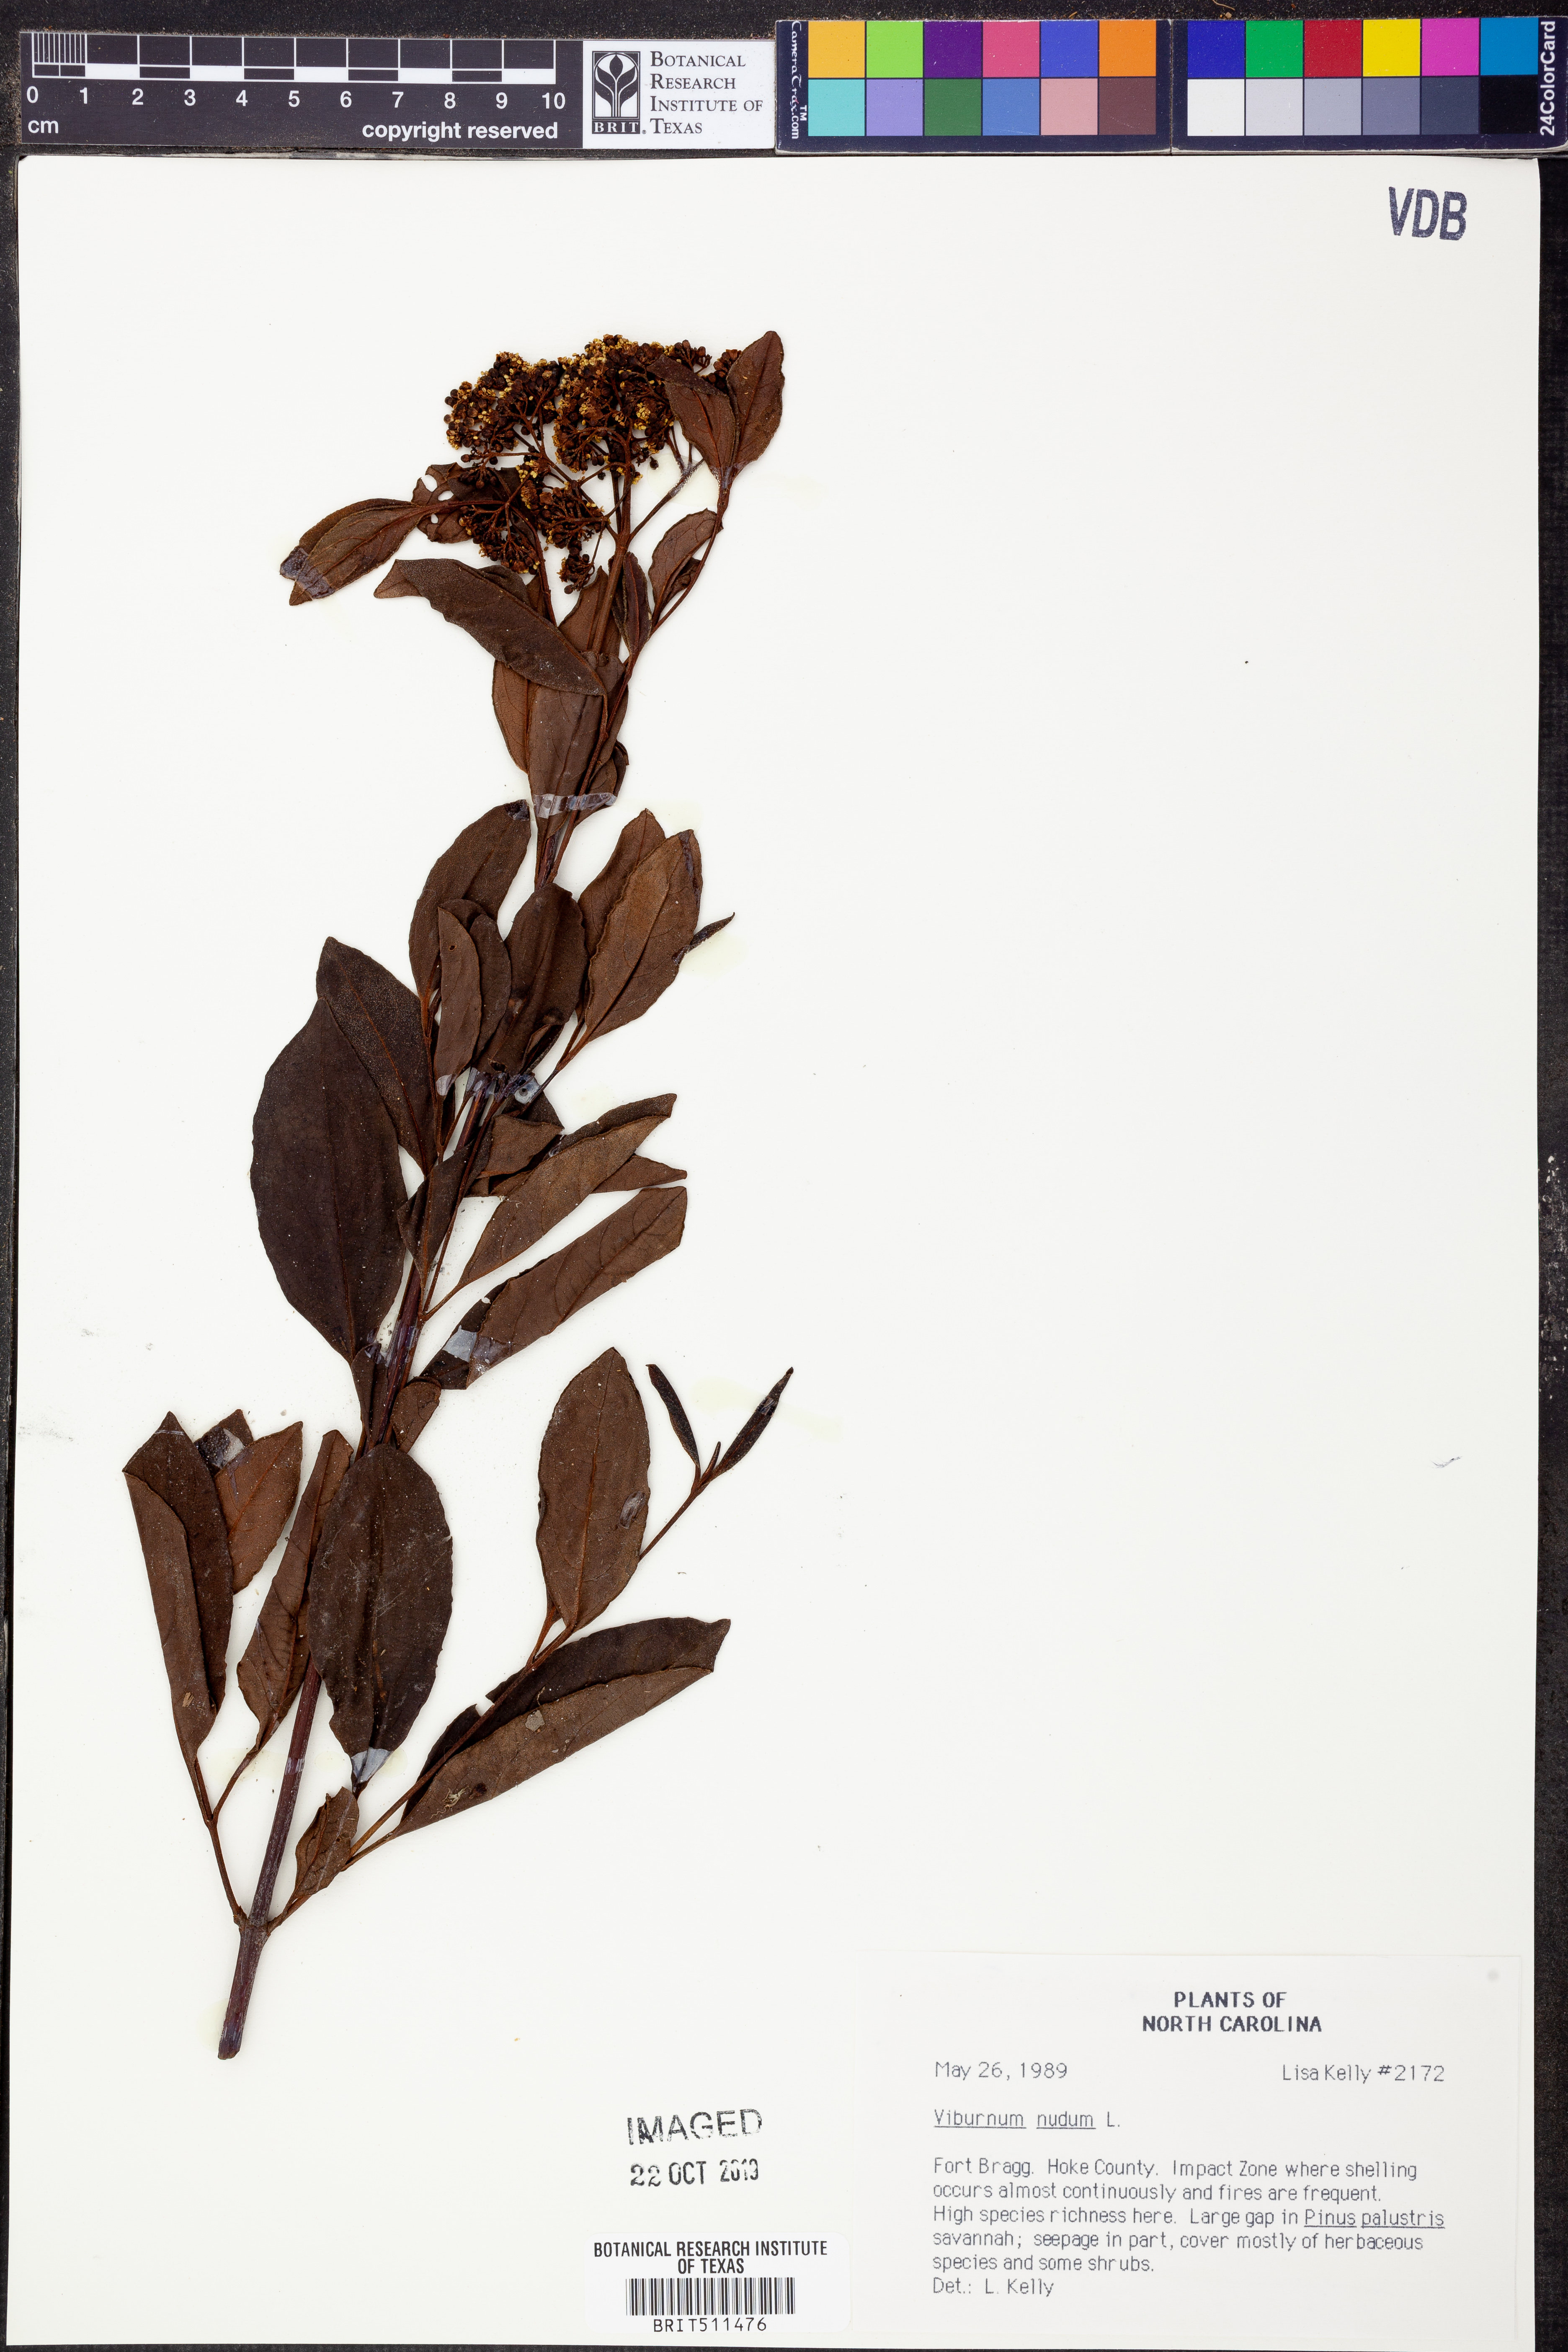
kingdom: Plantae
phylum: Tracheophyta
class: Magnoliopsida
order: Dipsacales
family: Viburnaceae
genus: Viburnum
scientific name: Viburnum nudum
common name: Possum haw
